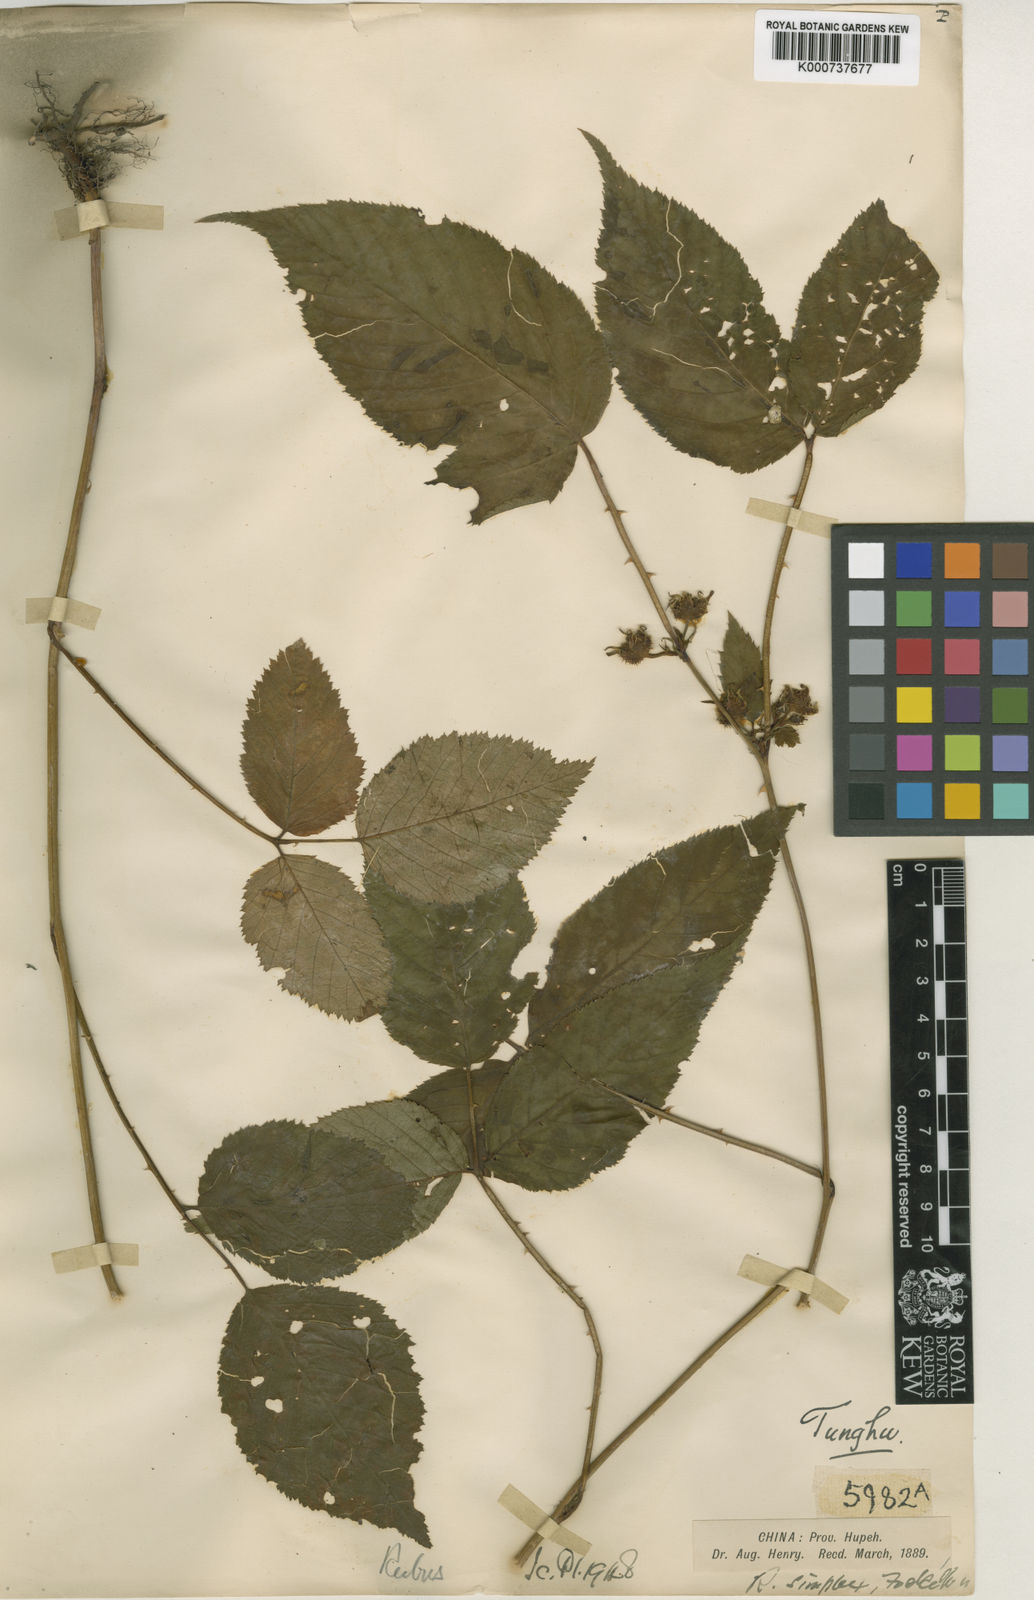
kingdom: Plantae
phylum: Tracheophyta
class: Magnoliopsida
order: Rosales
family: Rosaceae
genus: Rubus
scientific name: Rubus simplex
